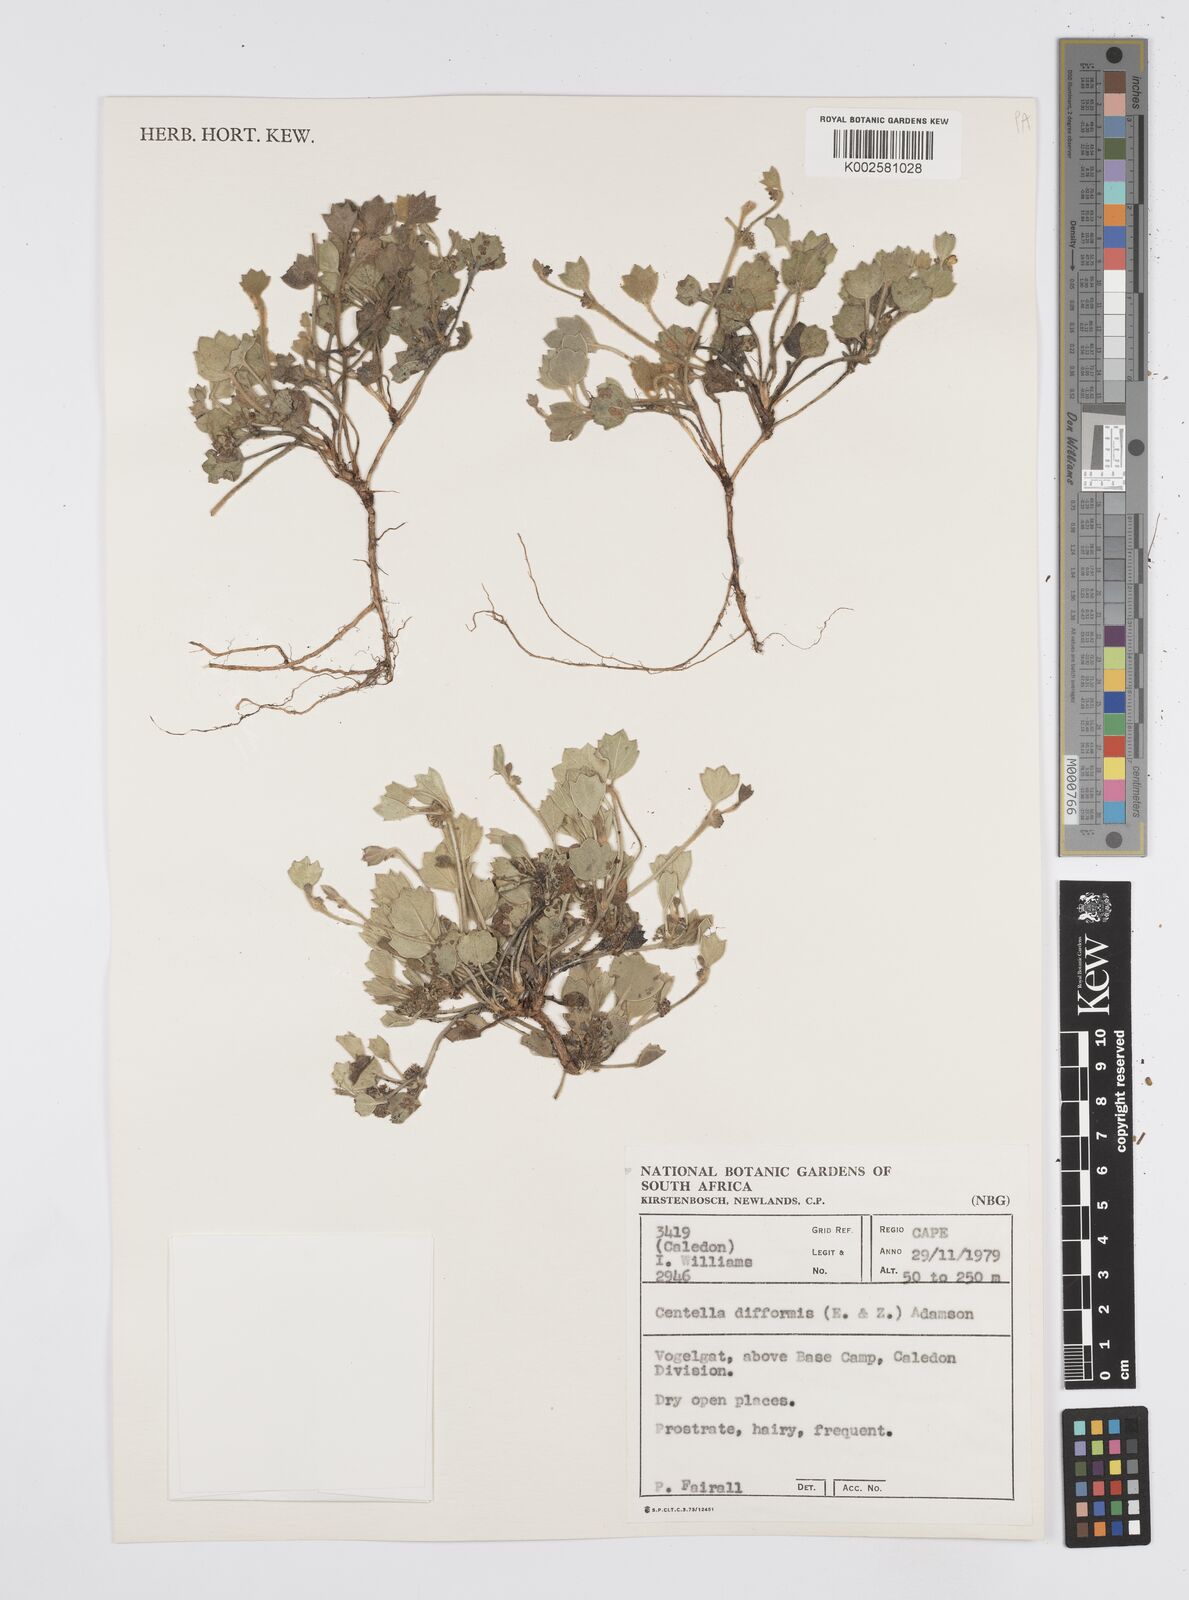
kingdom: Plantae
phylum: Tracheophyta
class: Magnoliopsida
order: Apiales
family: Apiaceae
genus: Centella
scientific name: Centella difformis
